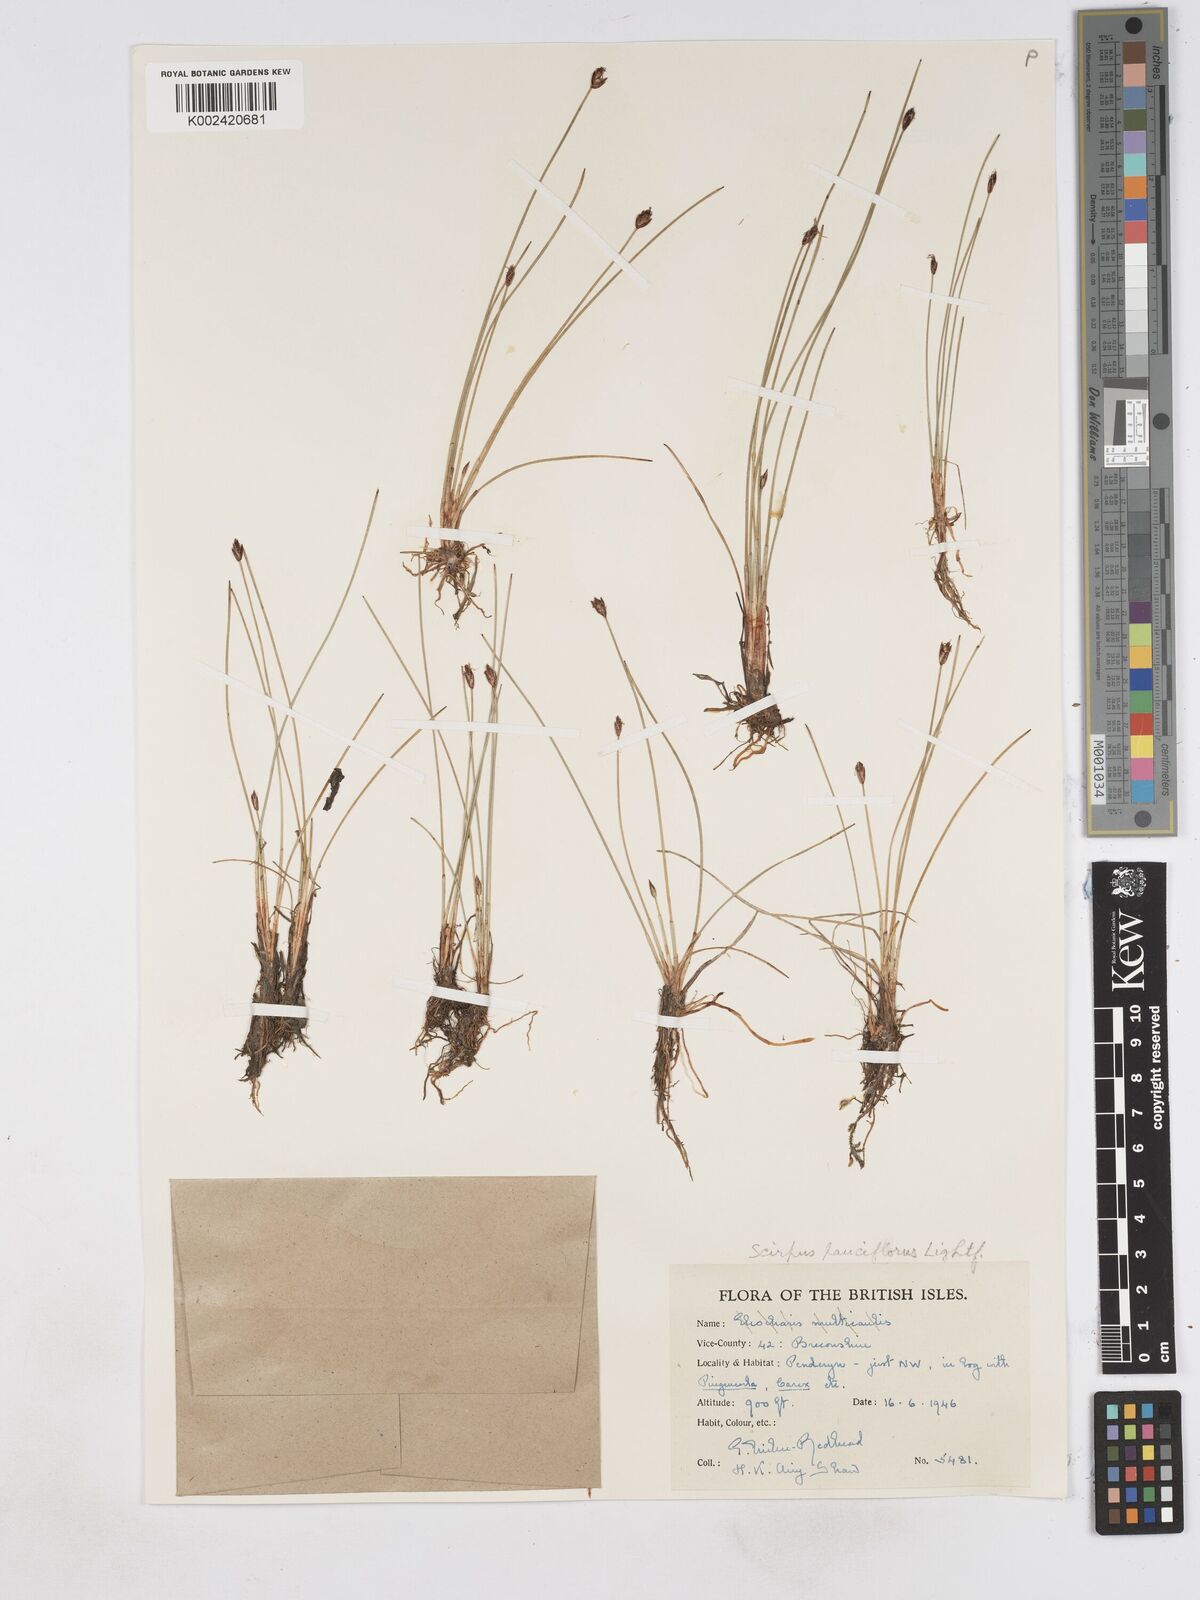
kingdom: Plantae
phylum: Tracheophyta
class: Liliopsida
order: Poales
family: Cyperaceae
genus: Eleocharis
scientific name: Eleocharis quinqueflora
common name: Few-flowered spike-rush
